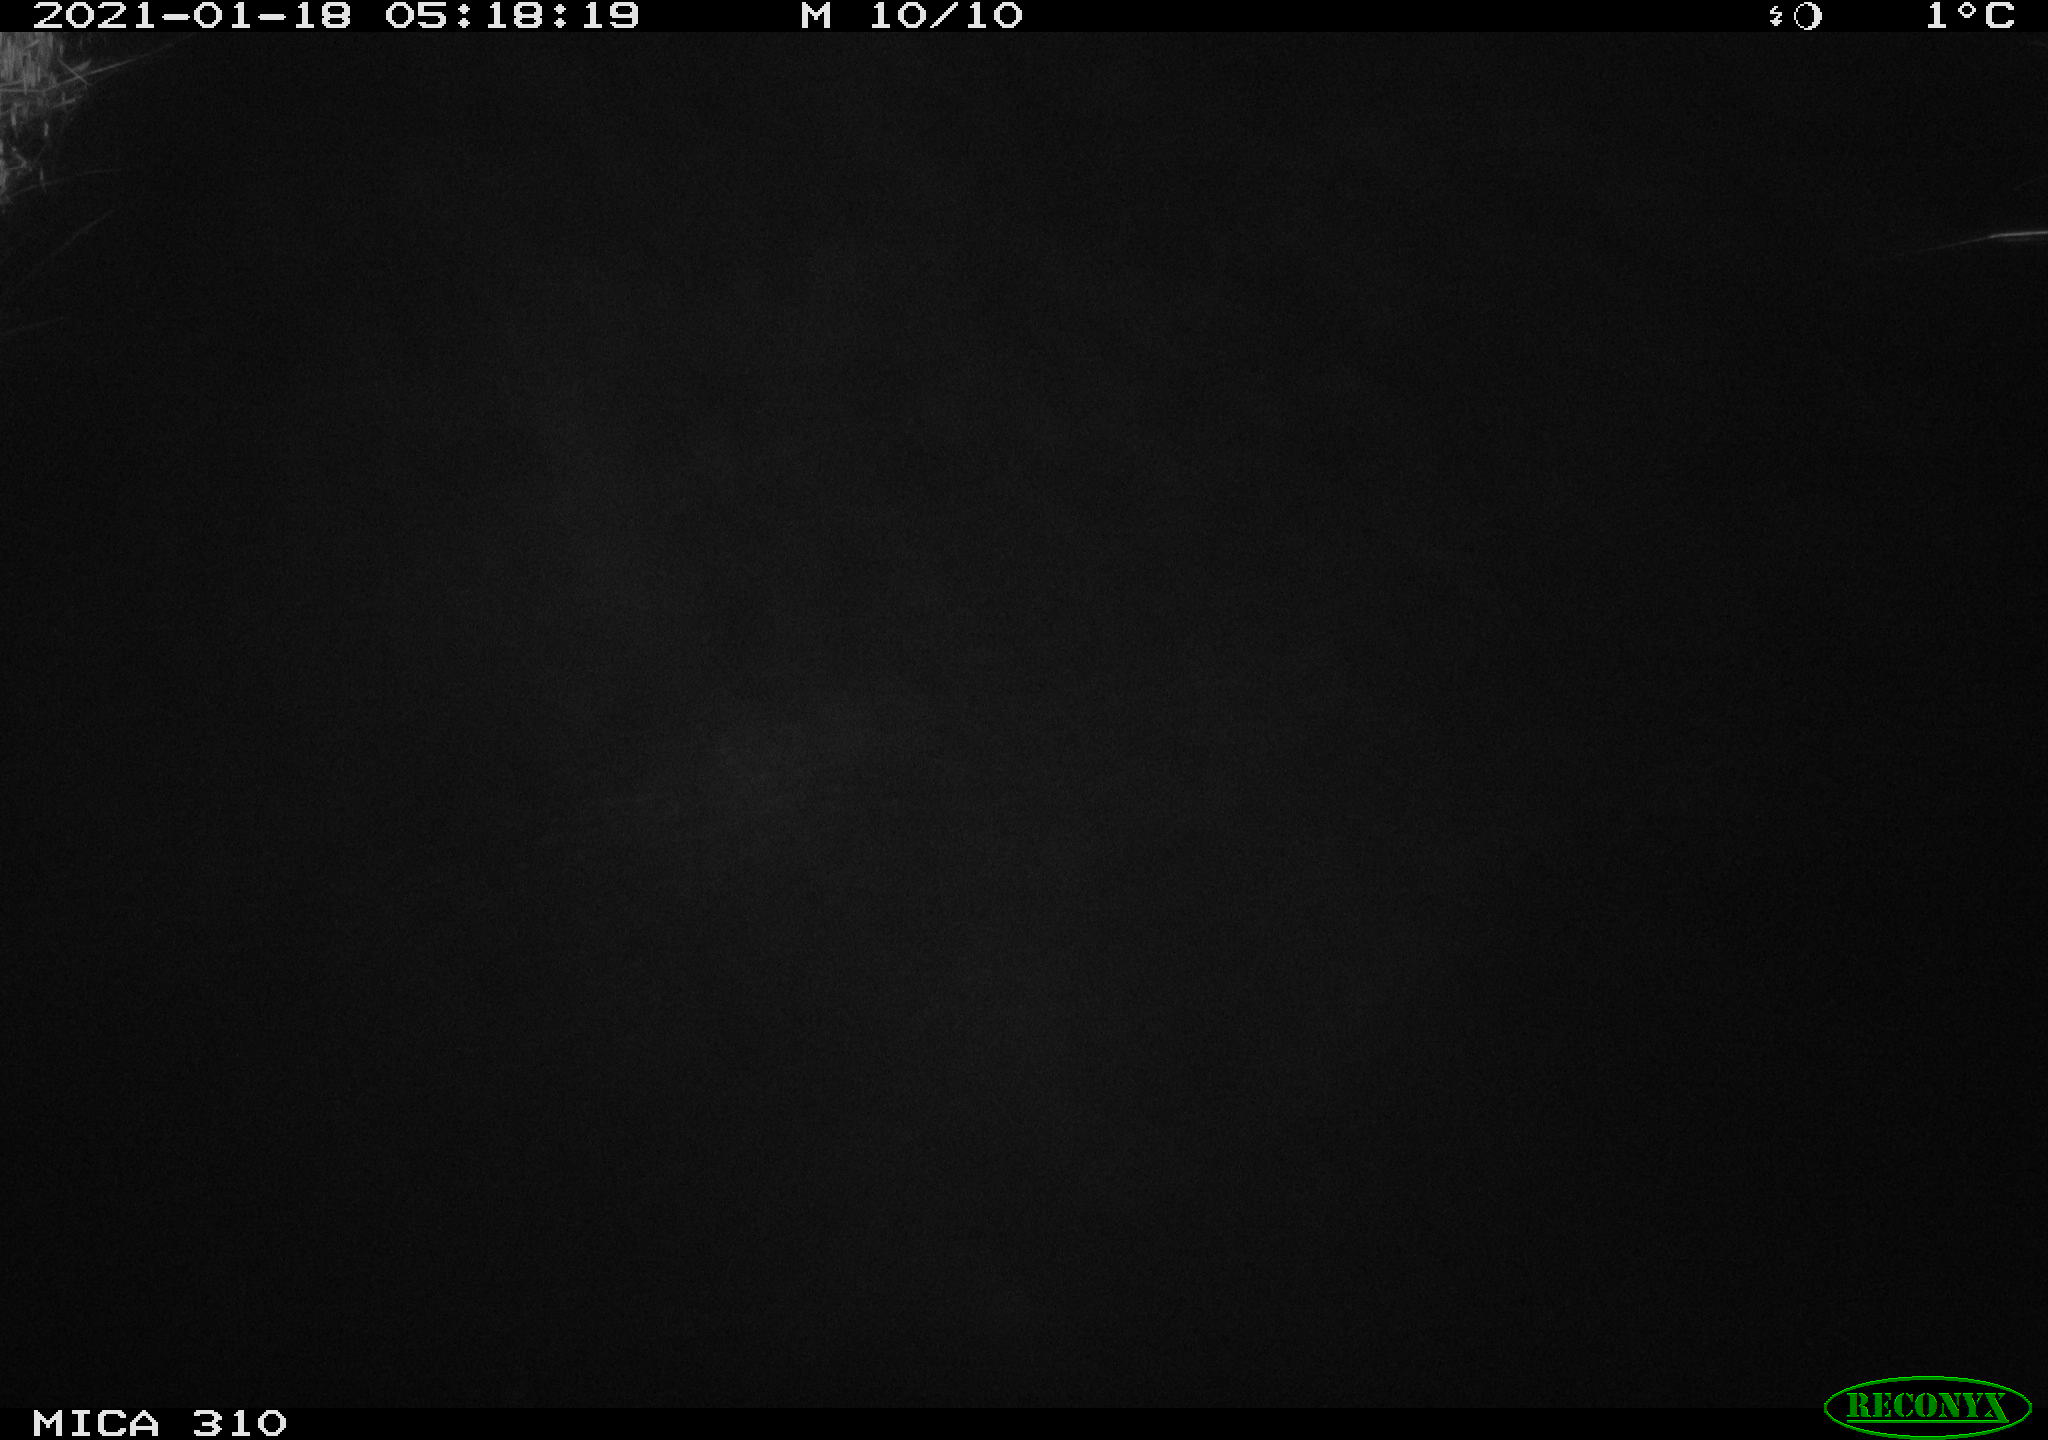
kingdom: Animalia
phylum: Chordata
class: Mammalia
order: Rodentia
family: Muridae
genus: Rattus
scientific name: Rattus norvegicus
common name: Brown rat
